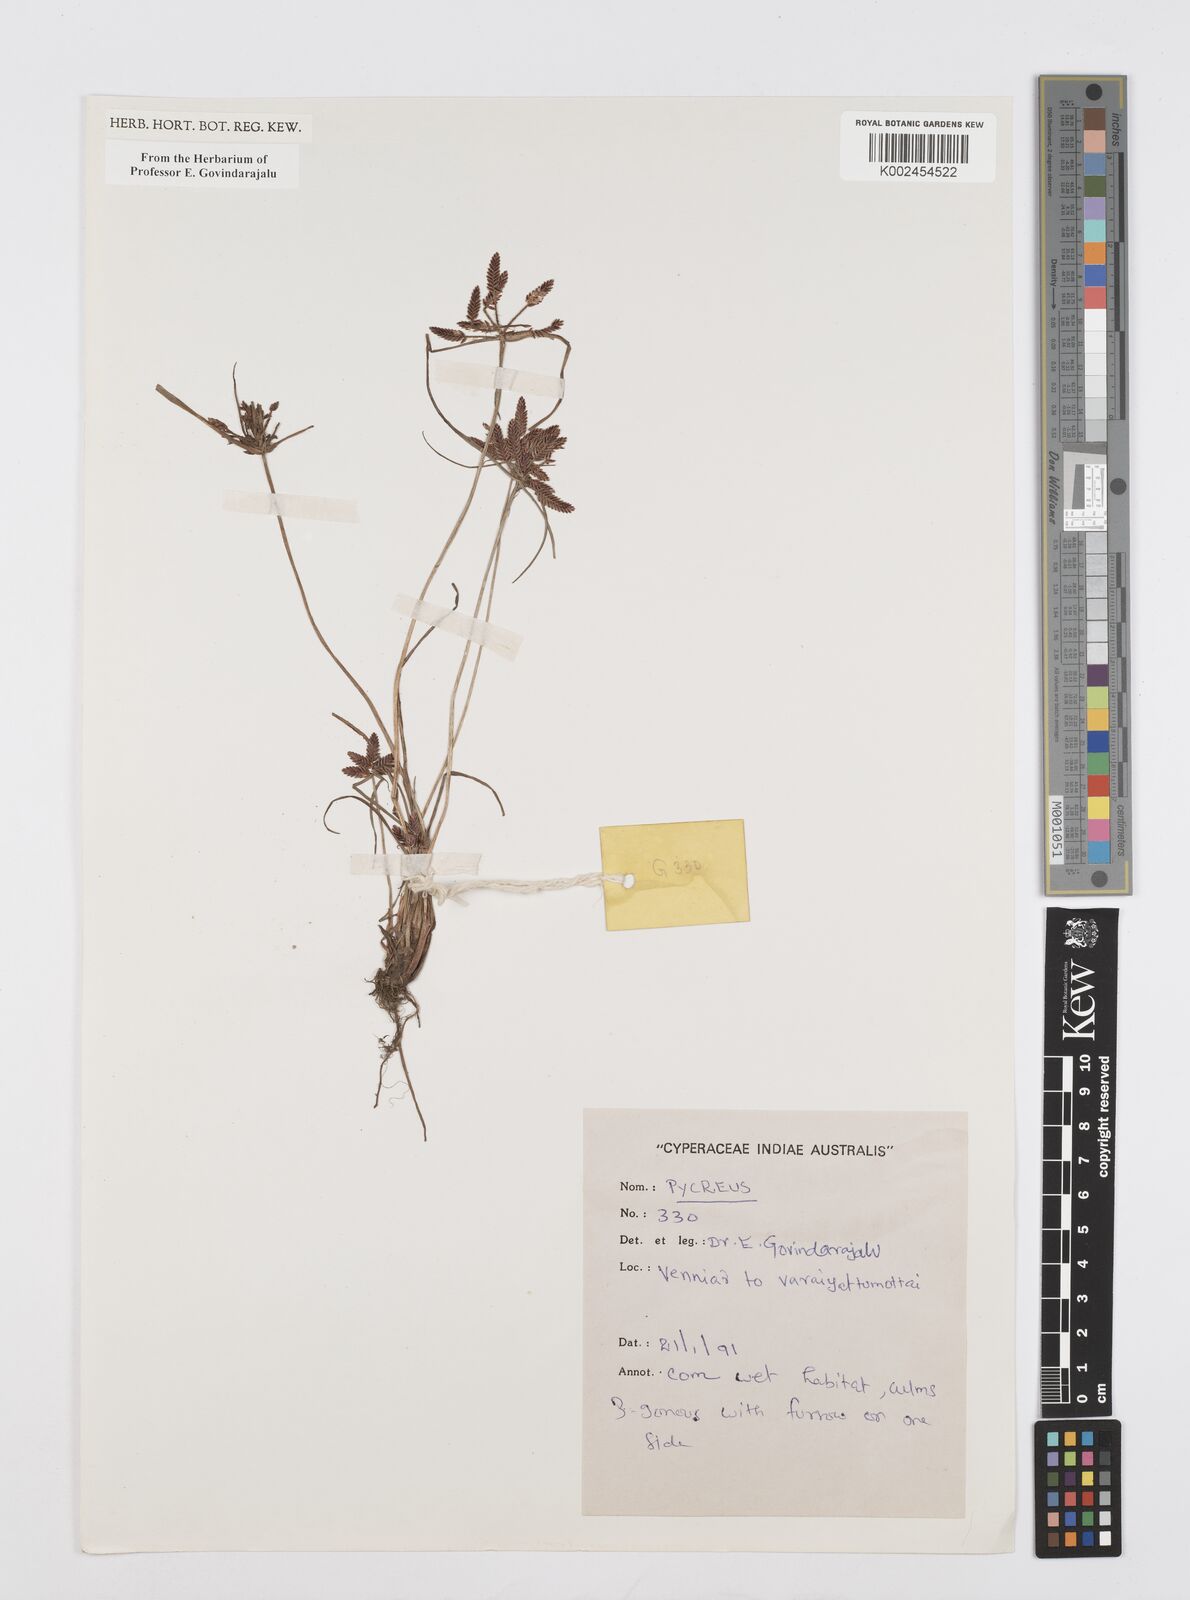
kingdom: Plantae
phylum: Tracheophyta
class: Liliopsida
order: Poales
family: Cyperaceae
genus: Cyperus
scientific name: Cyperus
